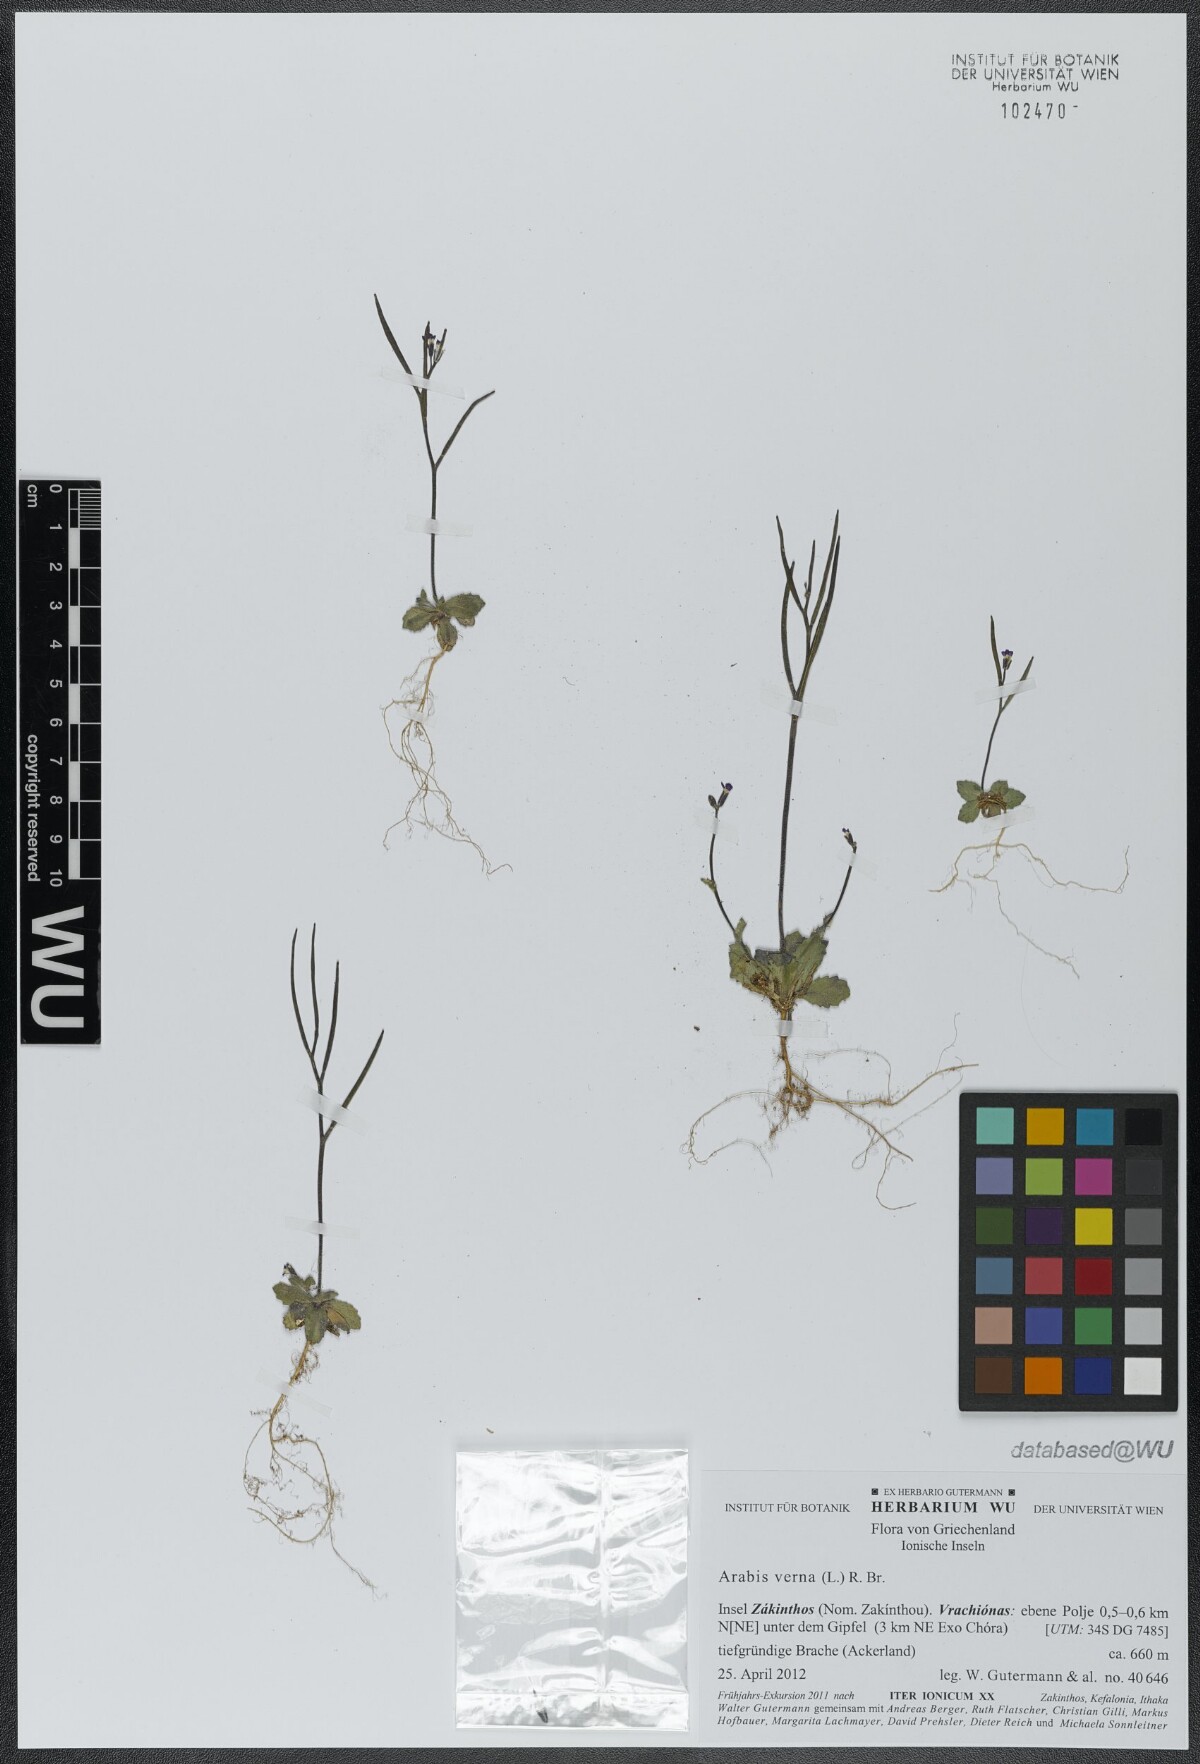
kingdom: Plantae
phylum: Tracheophyta
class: Magnoliopsida
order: Brassicales
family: Brassicaceae
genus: Arabis
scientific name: Arabis verna
